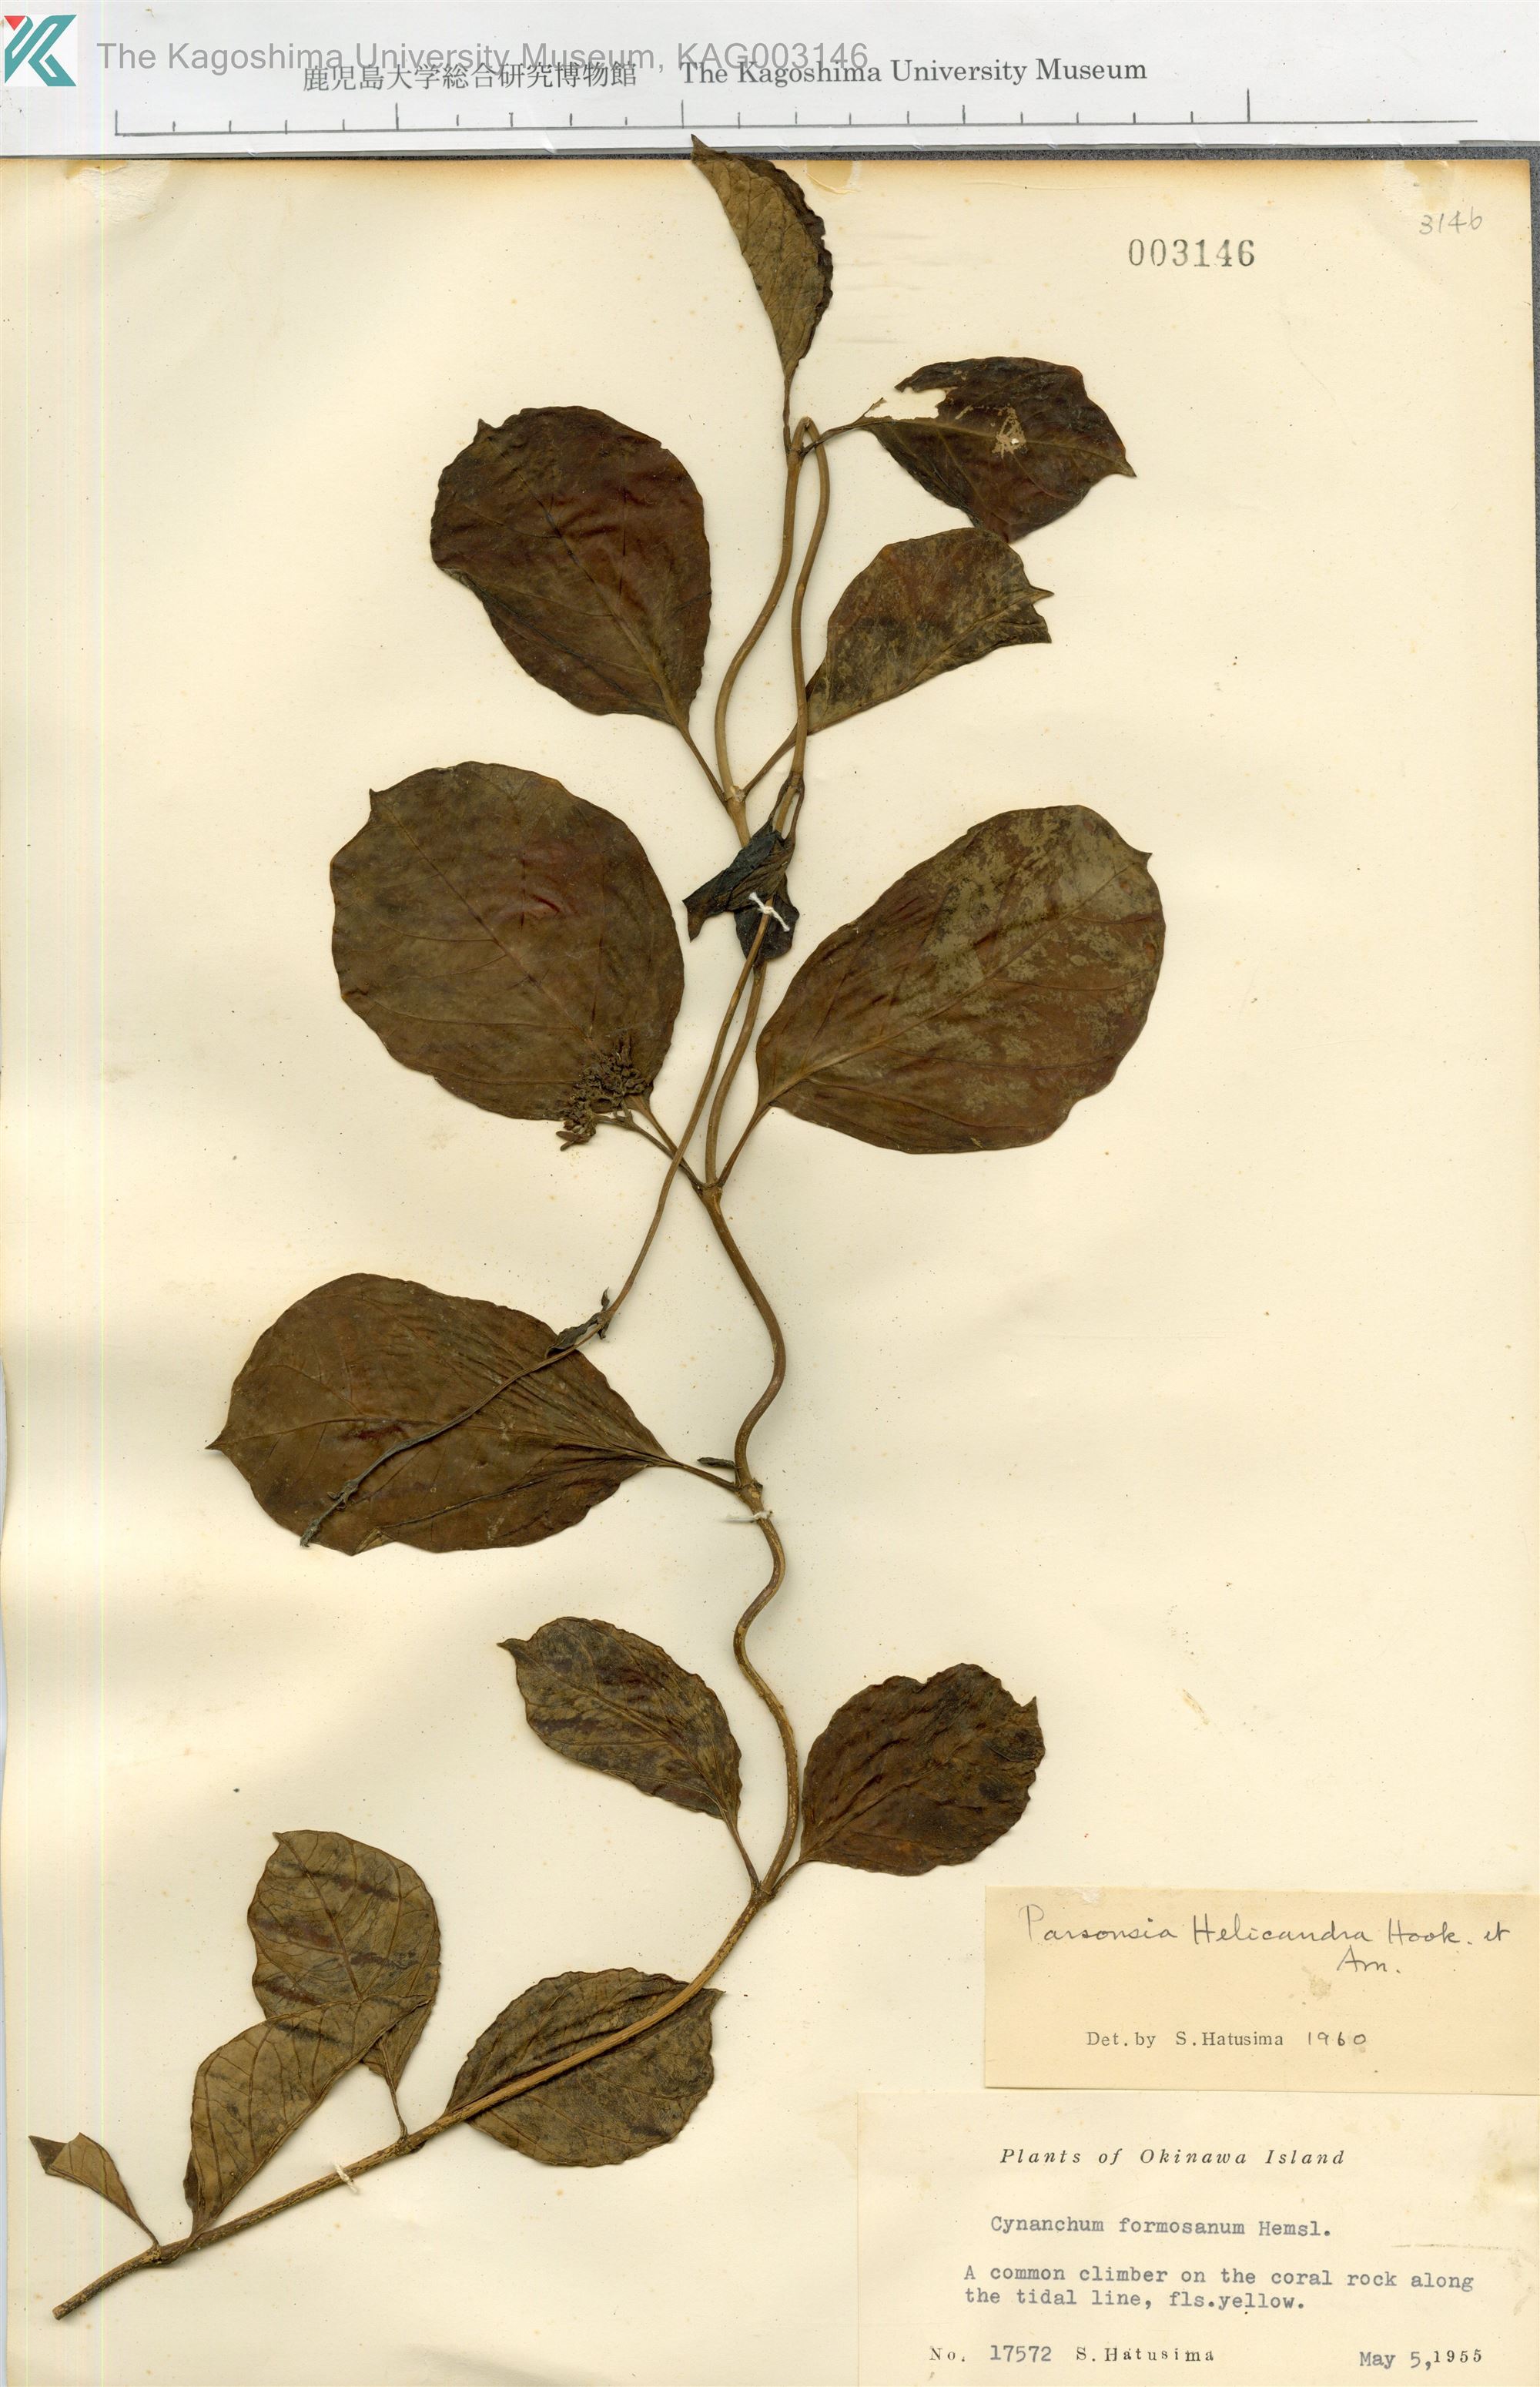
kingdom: Plantae
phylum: Tracheophyta
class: Magnoliopsida
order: Gentianales
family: Apocynaceae
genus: Parsonsia
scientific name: Parsonsia alboflavescens
